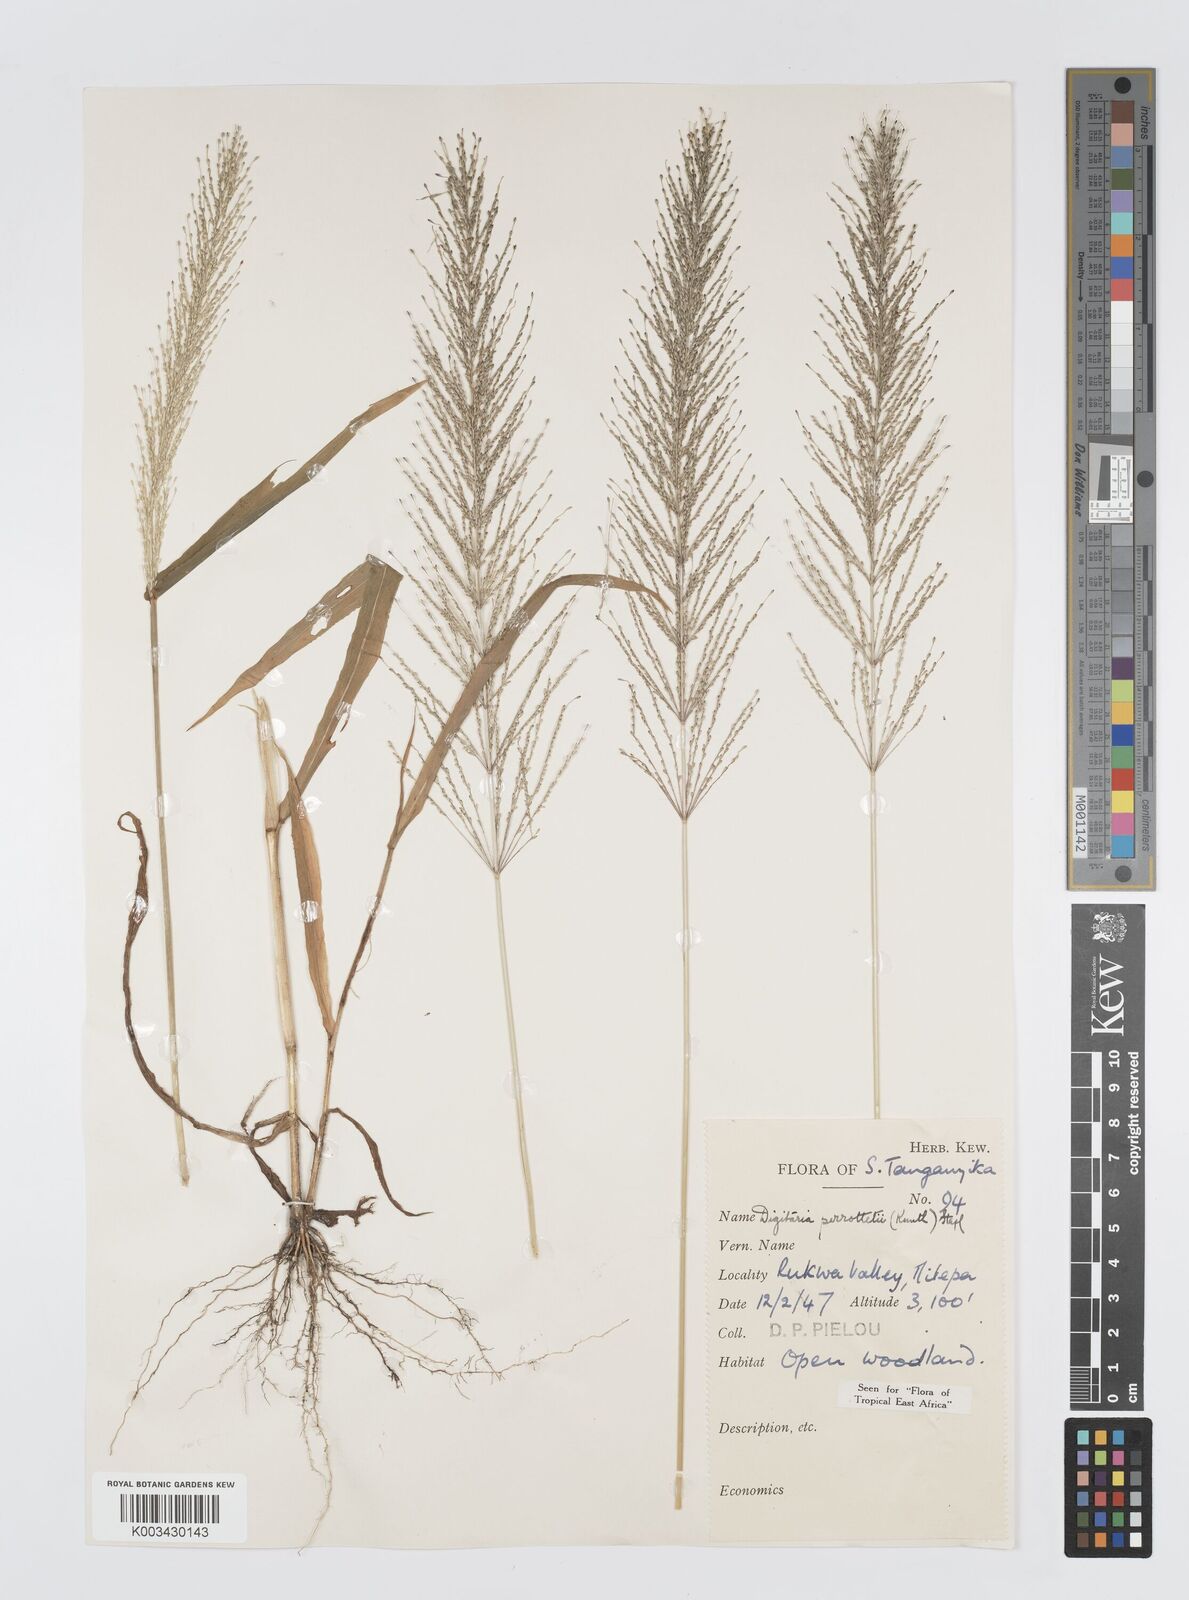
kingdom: Plantae
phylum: Tracheophyta
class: Liliopsida
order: Poales
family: Poaceae
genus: Digitaria
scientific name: Digitaria perrottetii
